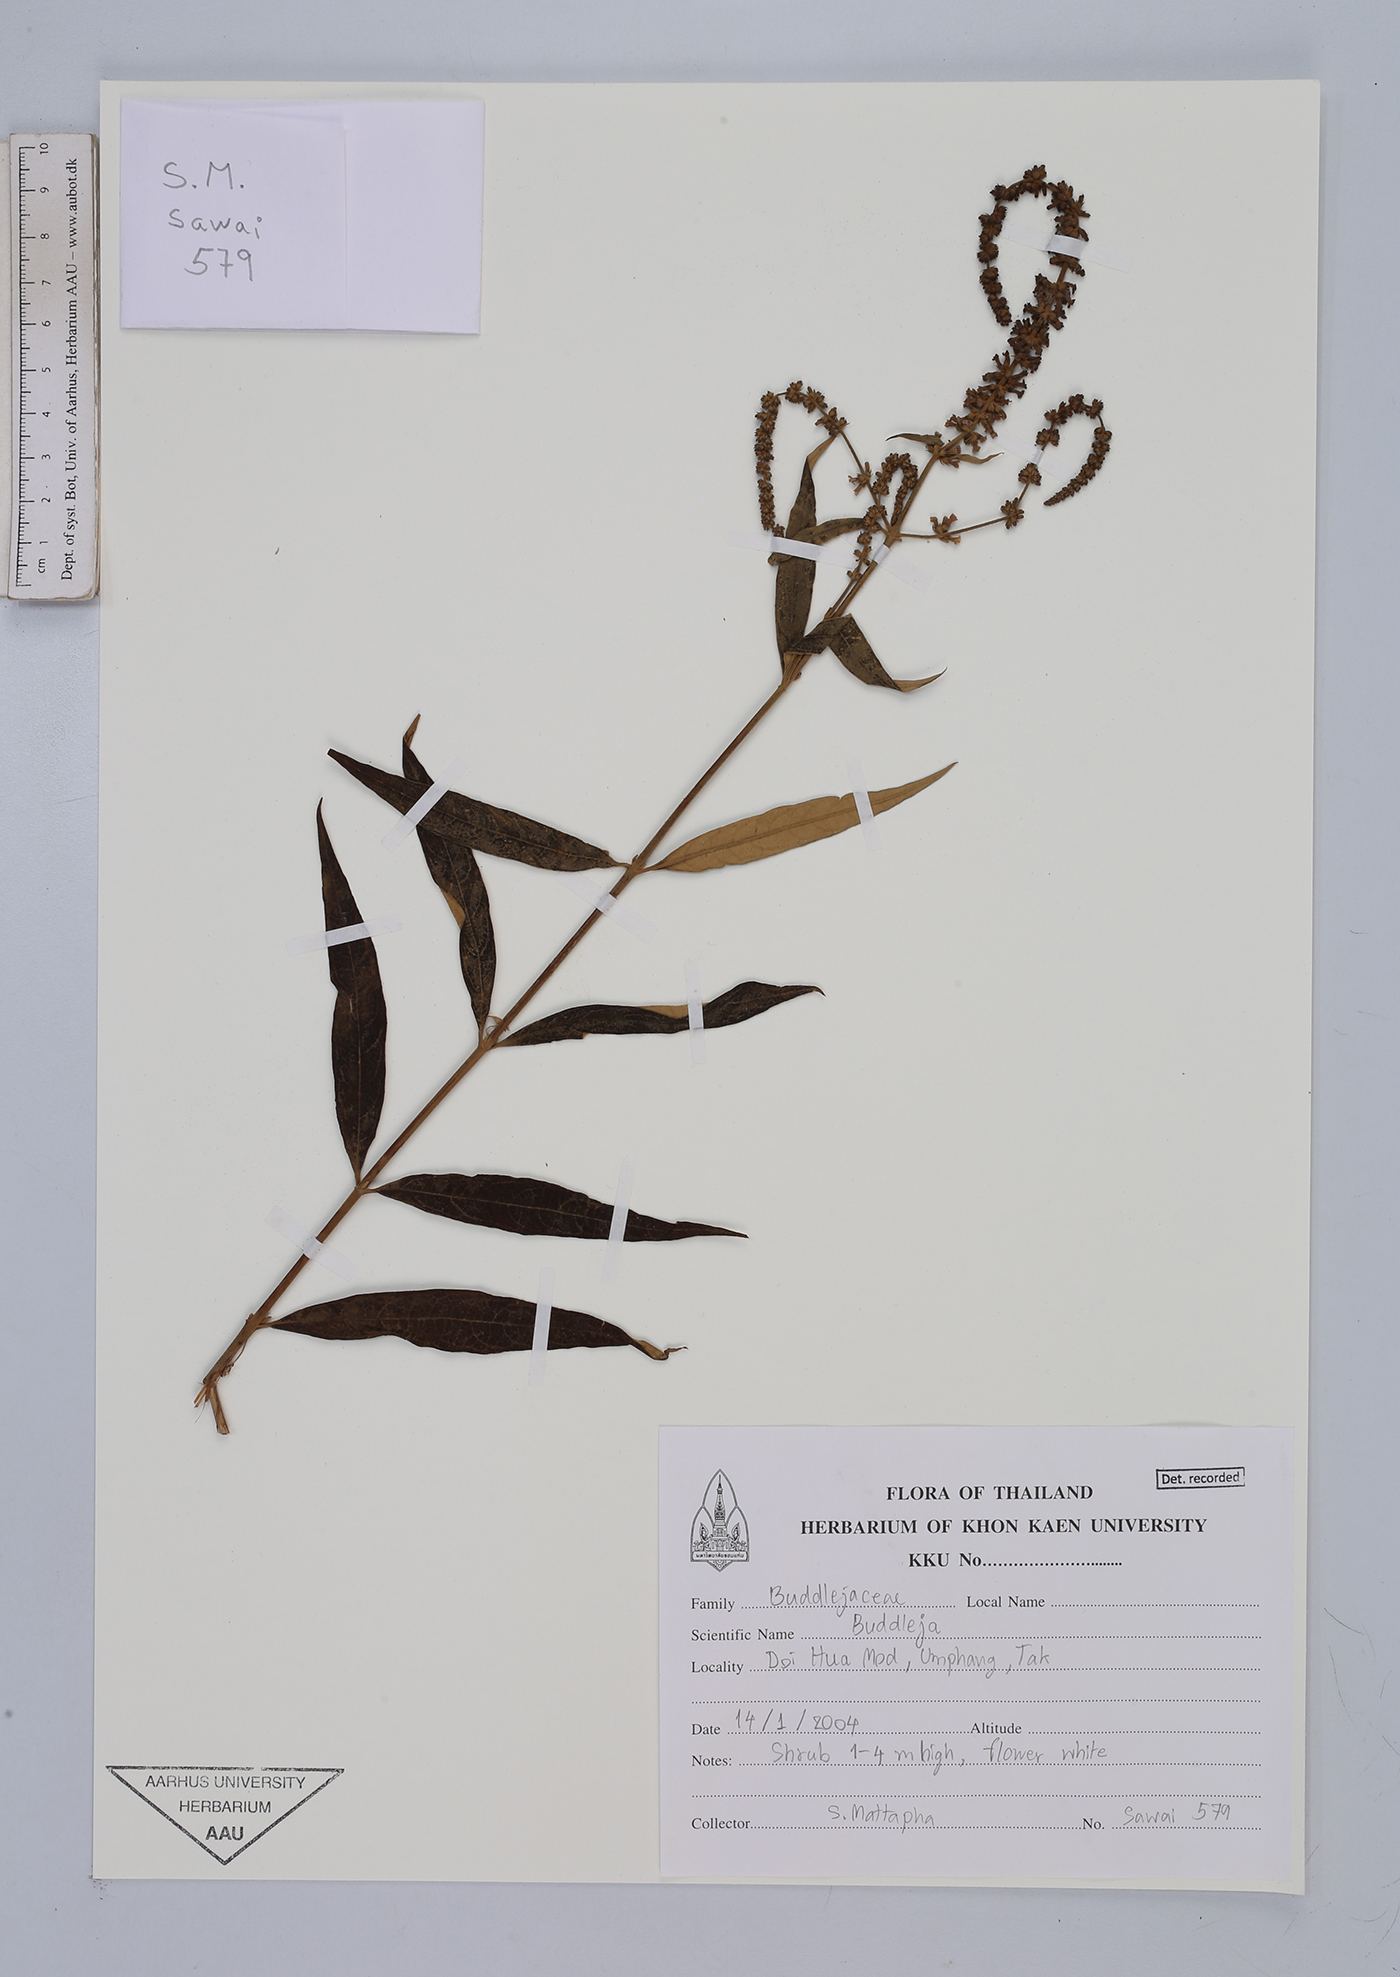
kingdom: Plantae
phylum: Tracheophyta
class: Magnoliopsida
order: Lamiales
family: Scrophulariaceae
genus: Buddleja
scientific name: Buddleja
